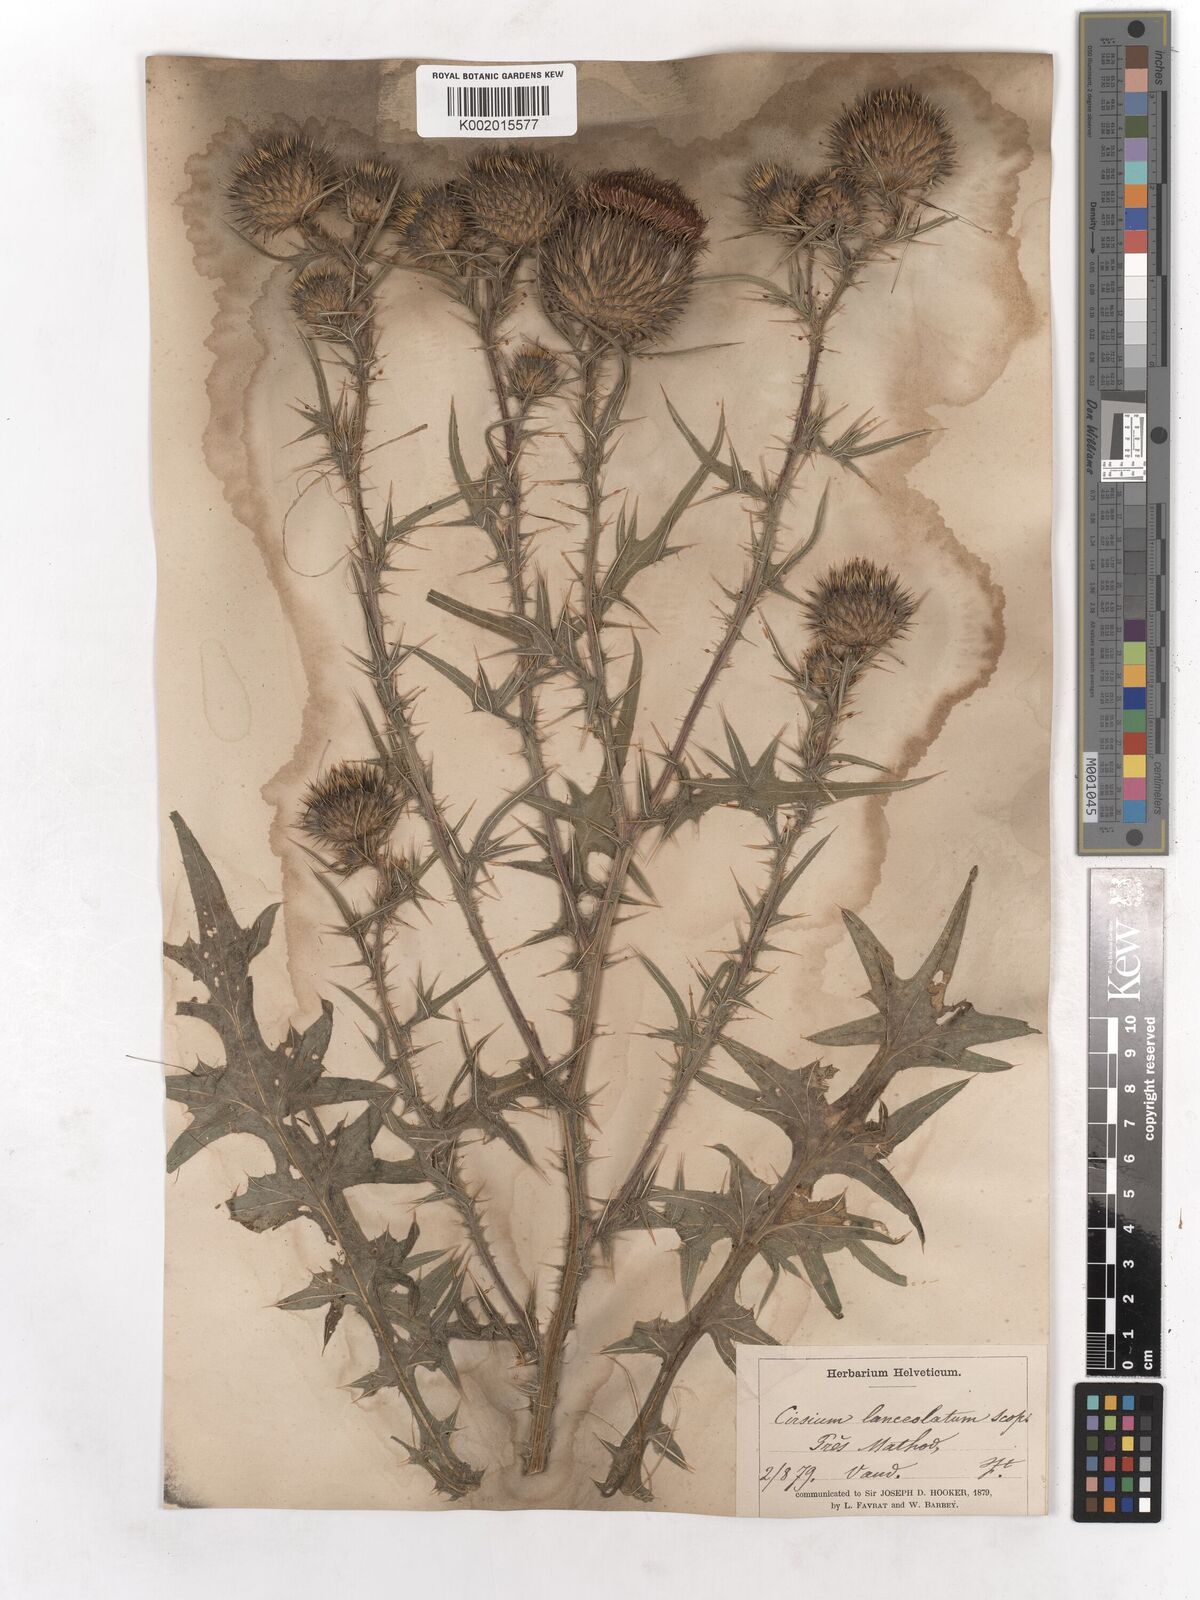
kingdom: Plantae
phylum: Tracheophyta
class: Magnoliopsida
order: Asterales
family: Asteraceae
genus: Cirsium
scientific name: Cirsium vulgare
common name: Bull thistle
